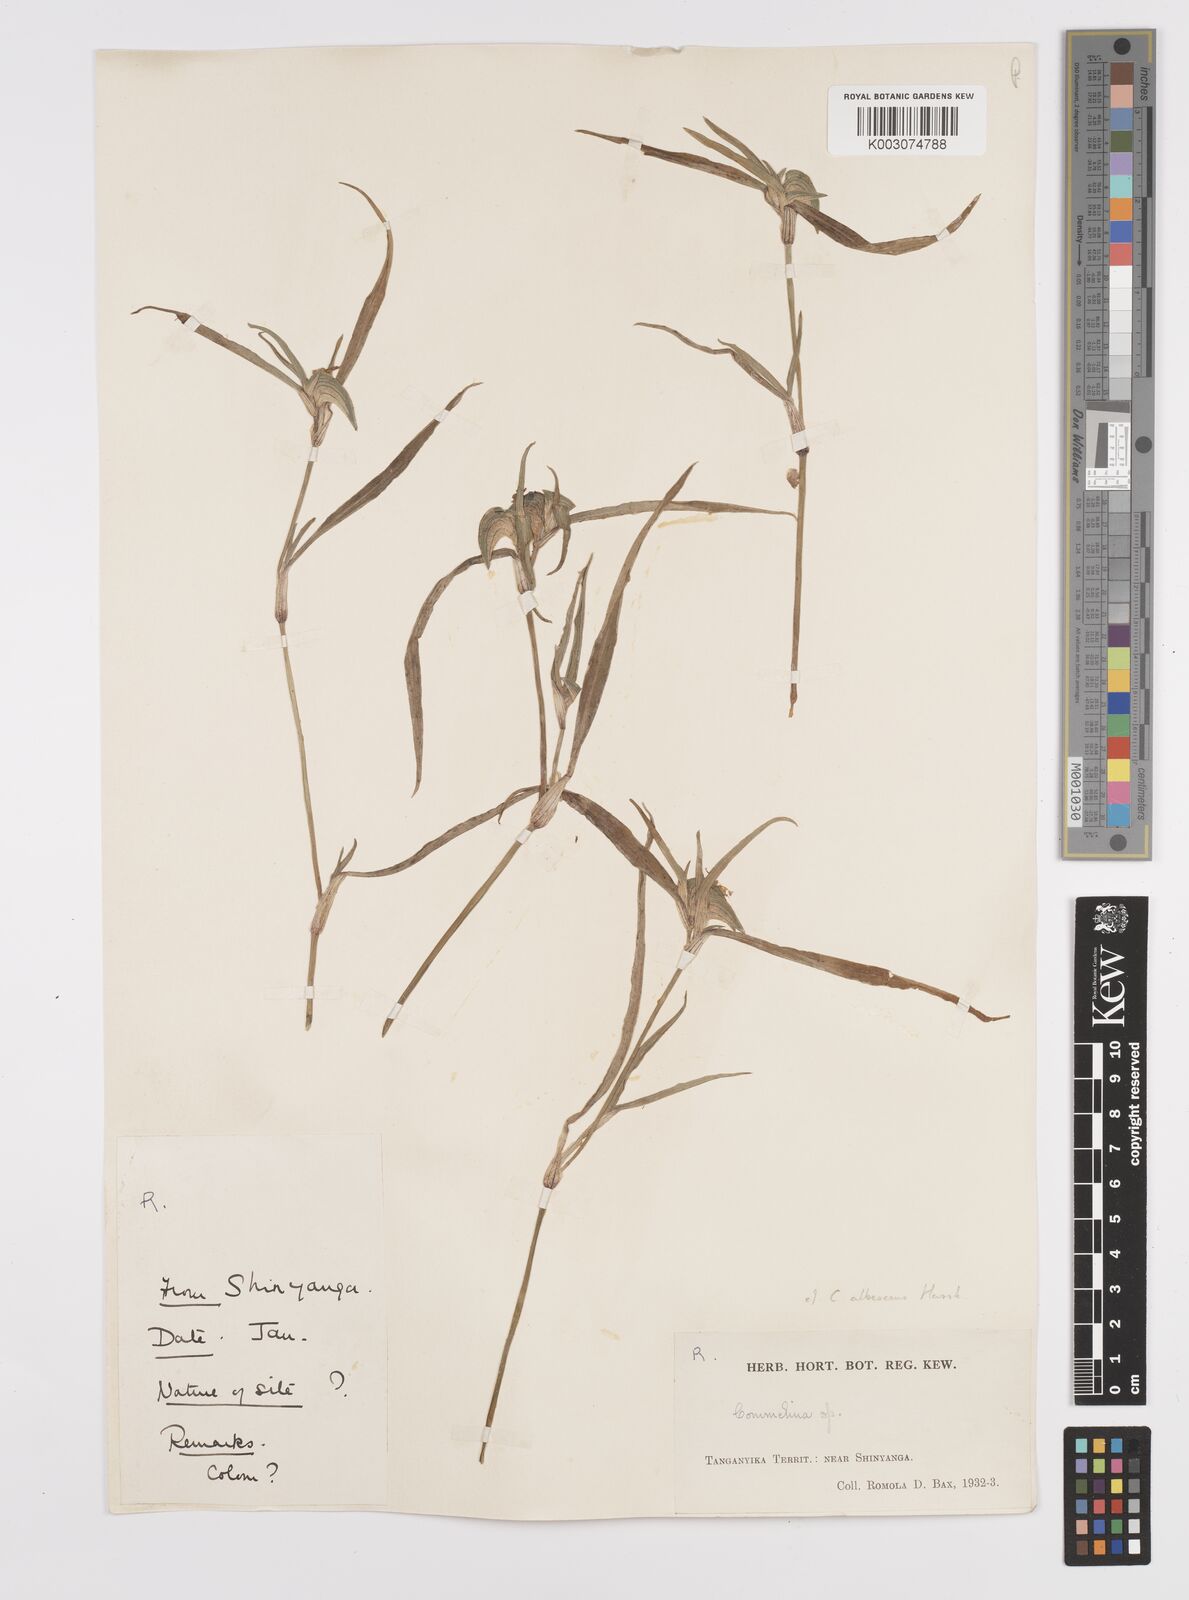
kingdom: Plantae
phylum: Tracheophyta
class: Liliopsida
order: Commelinales
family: Commelinaceae
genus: Commelina
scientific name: Commelina albescens
